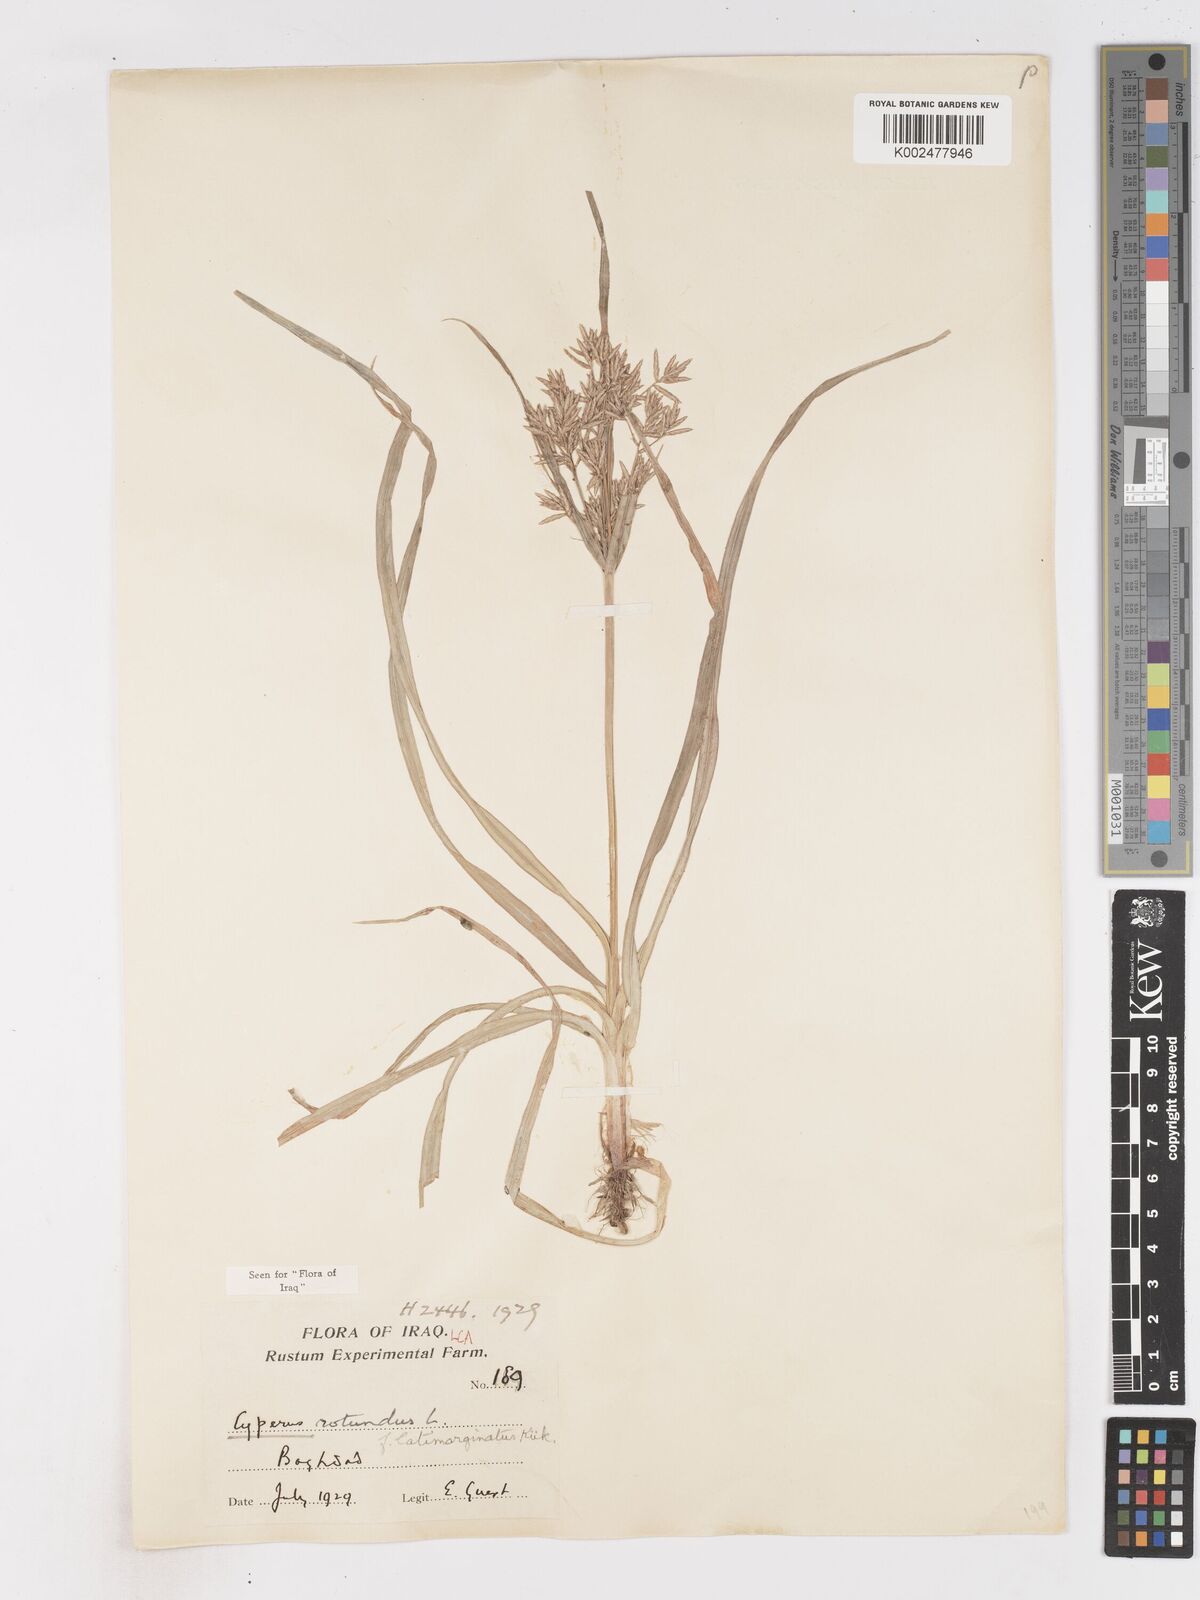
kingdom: Plantae
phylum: Tracheophyta
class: Liliopsida
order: Poales
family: Cyperaceae
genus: Cyperus
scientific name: Cyperus rotundus
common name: Nutgrass
